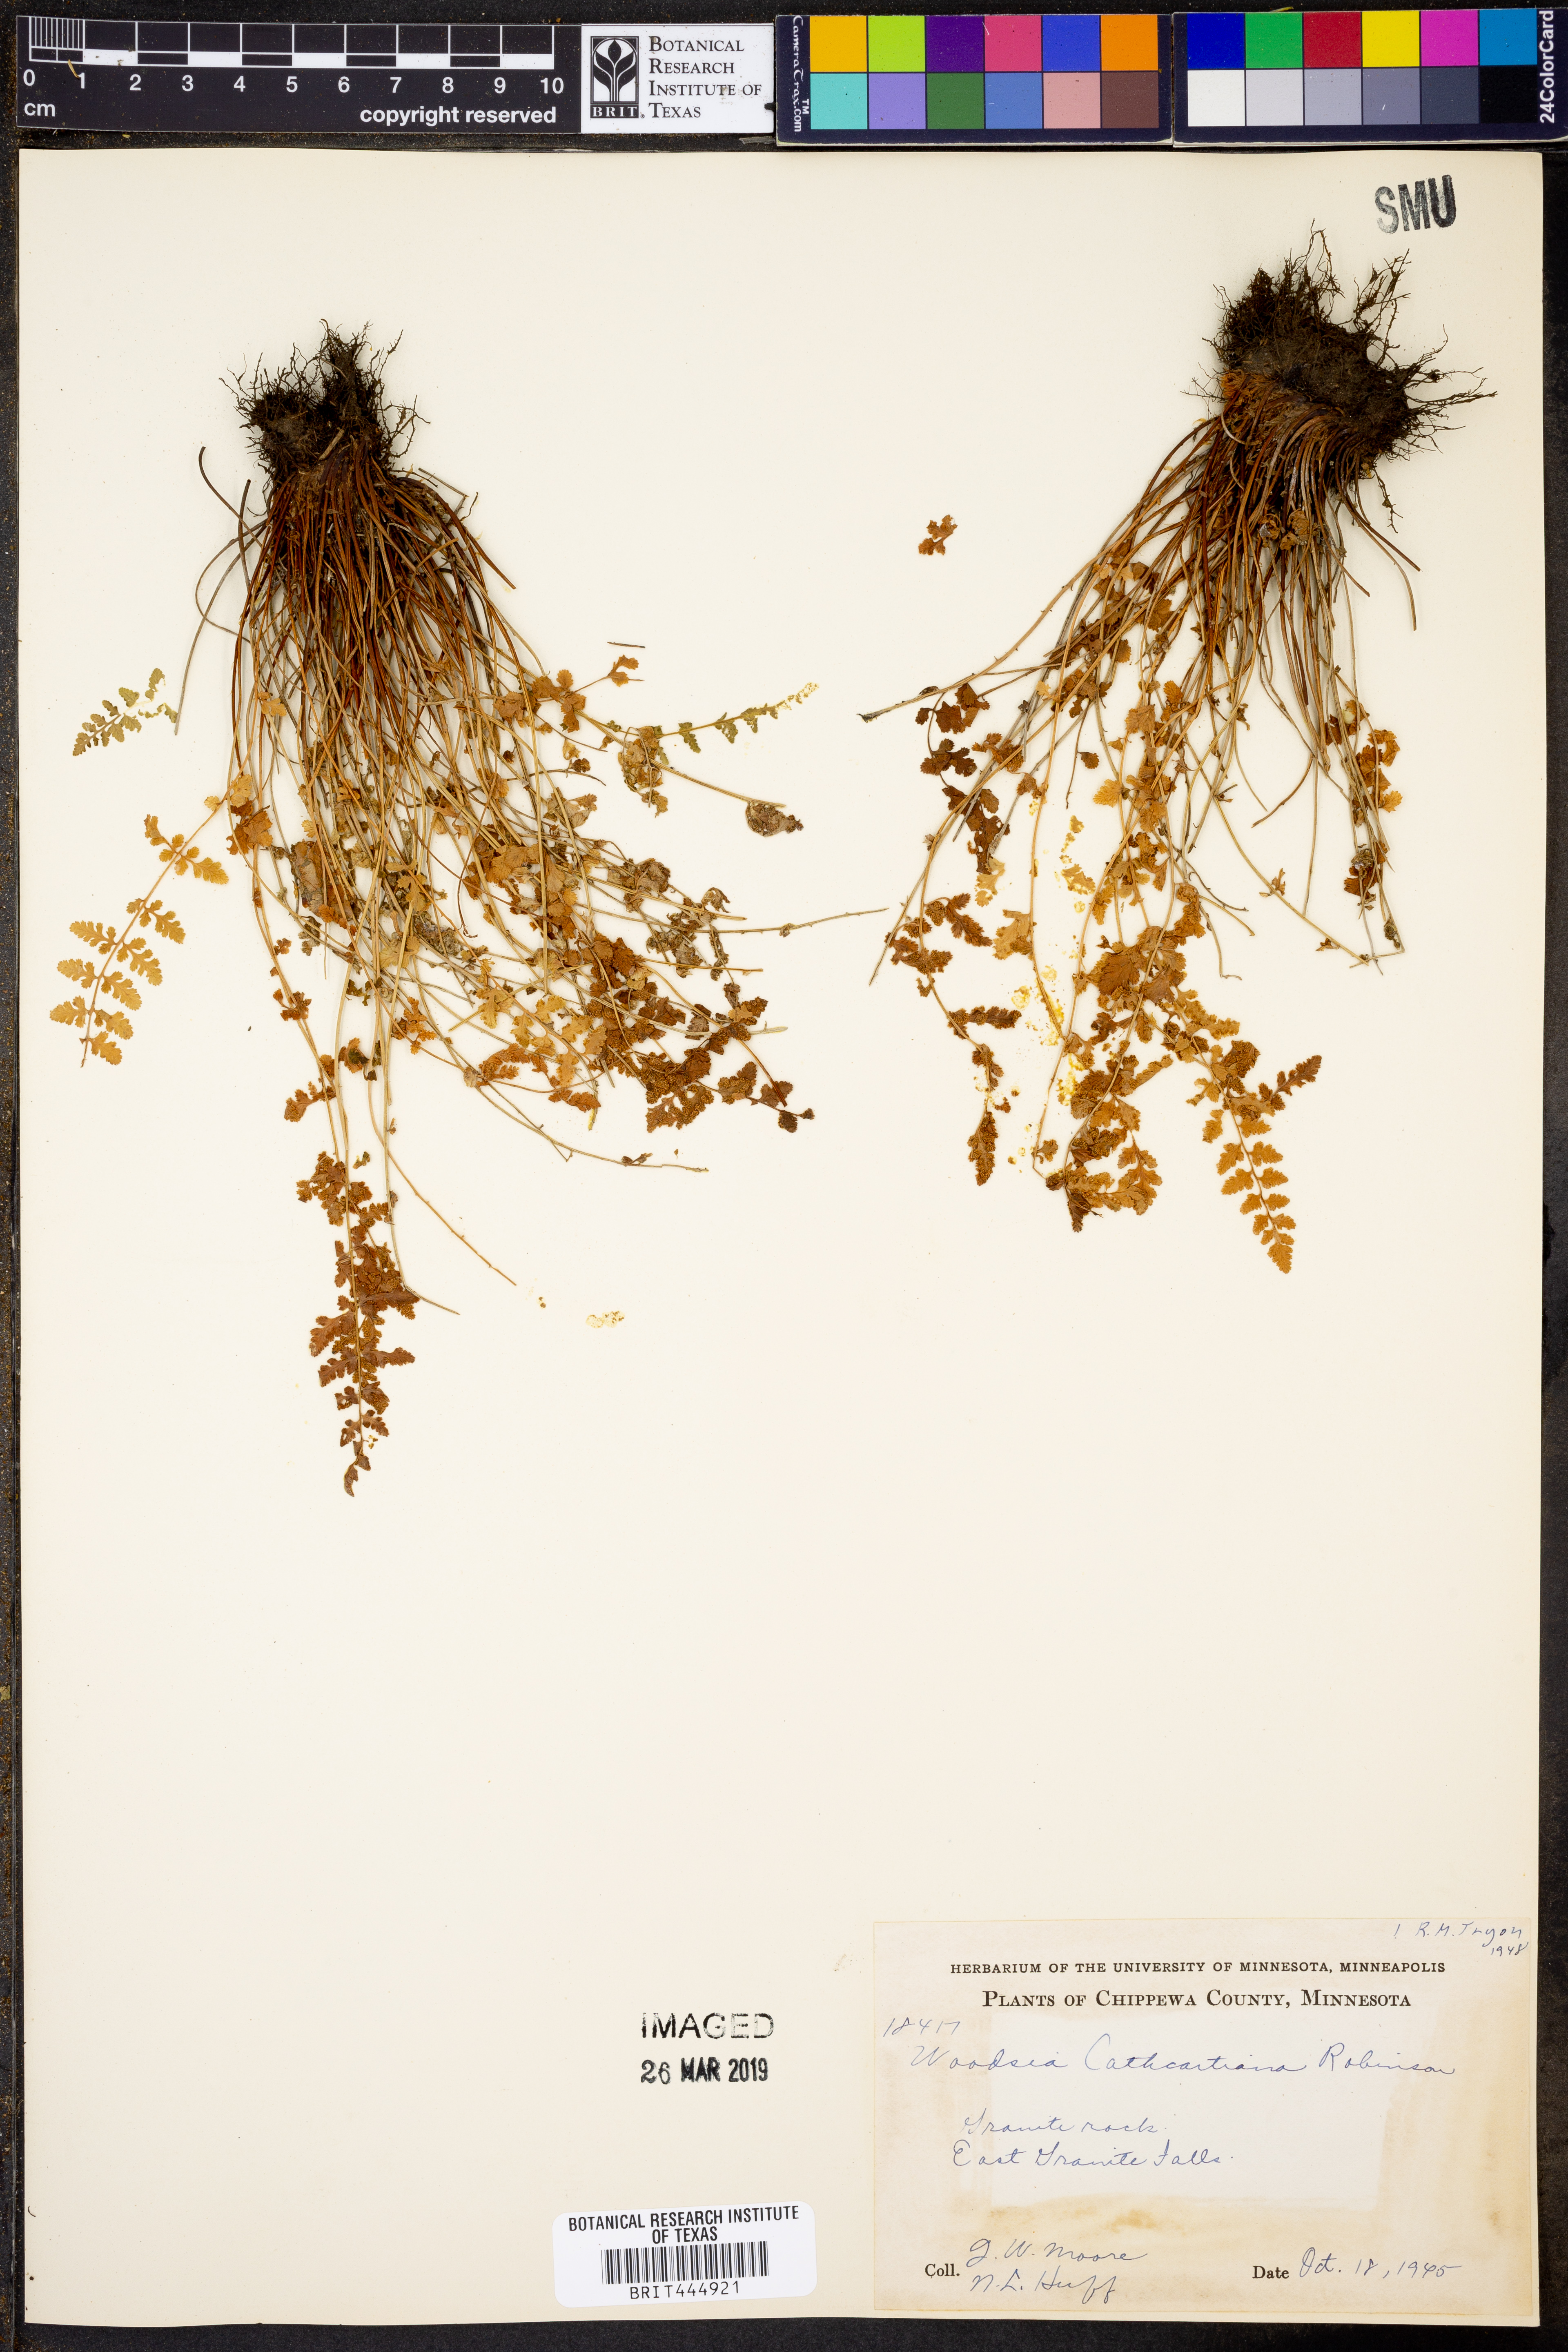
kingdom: Plantae
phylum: Tracheophyta
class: Polypodiopsida
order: Polypodiales
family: Woodsiaceae
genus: Physematium
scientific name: Physematium oreganum
